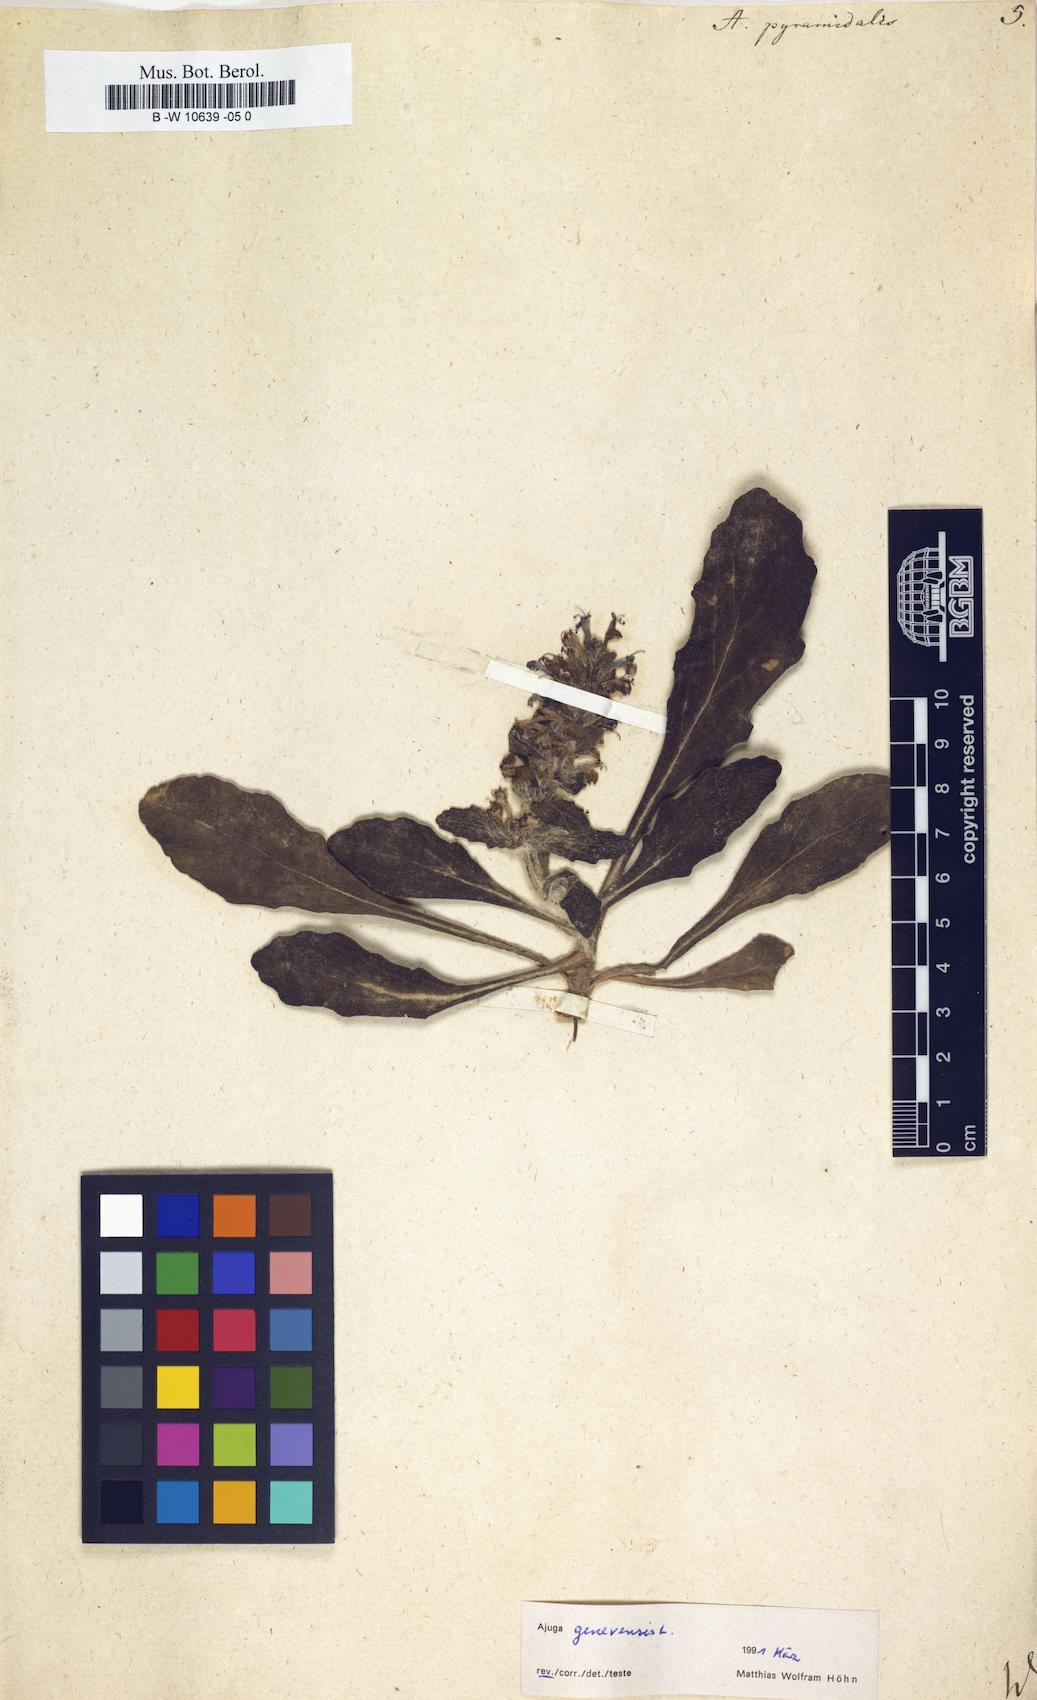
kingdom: Plantae
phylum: Tracheophyta
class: Magnoliopsida
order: Lamiales
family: Lamiaceae
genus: Ajuga
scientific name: Ajuga pyramidalis
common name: Pyramid bugle
